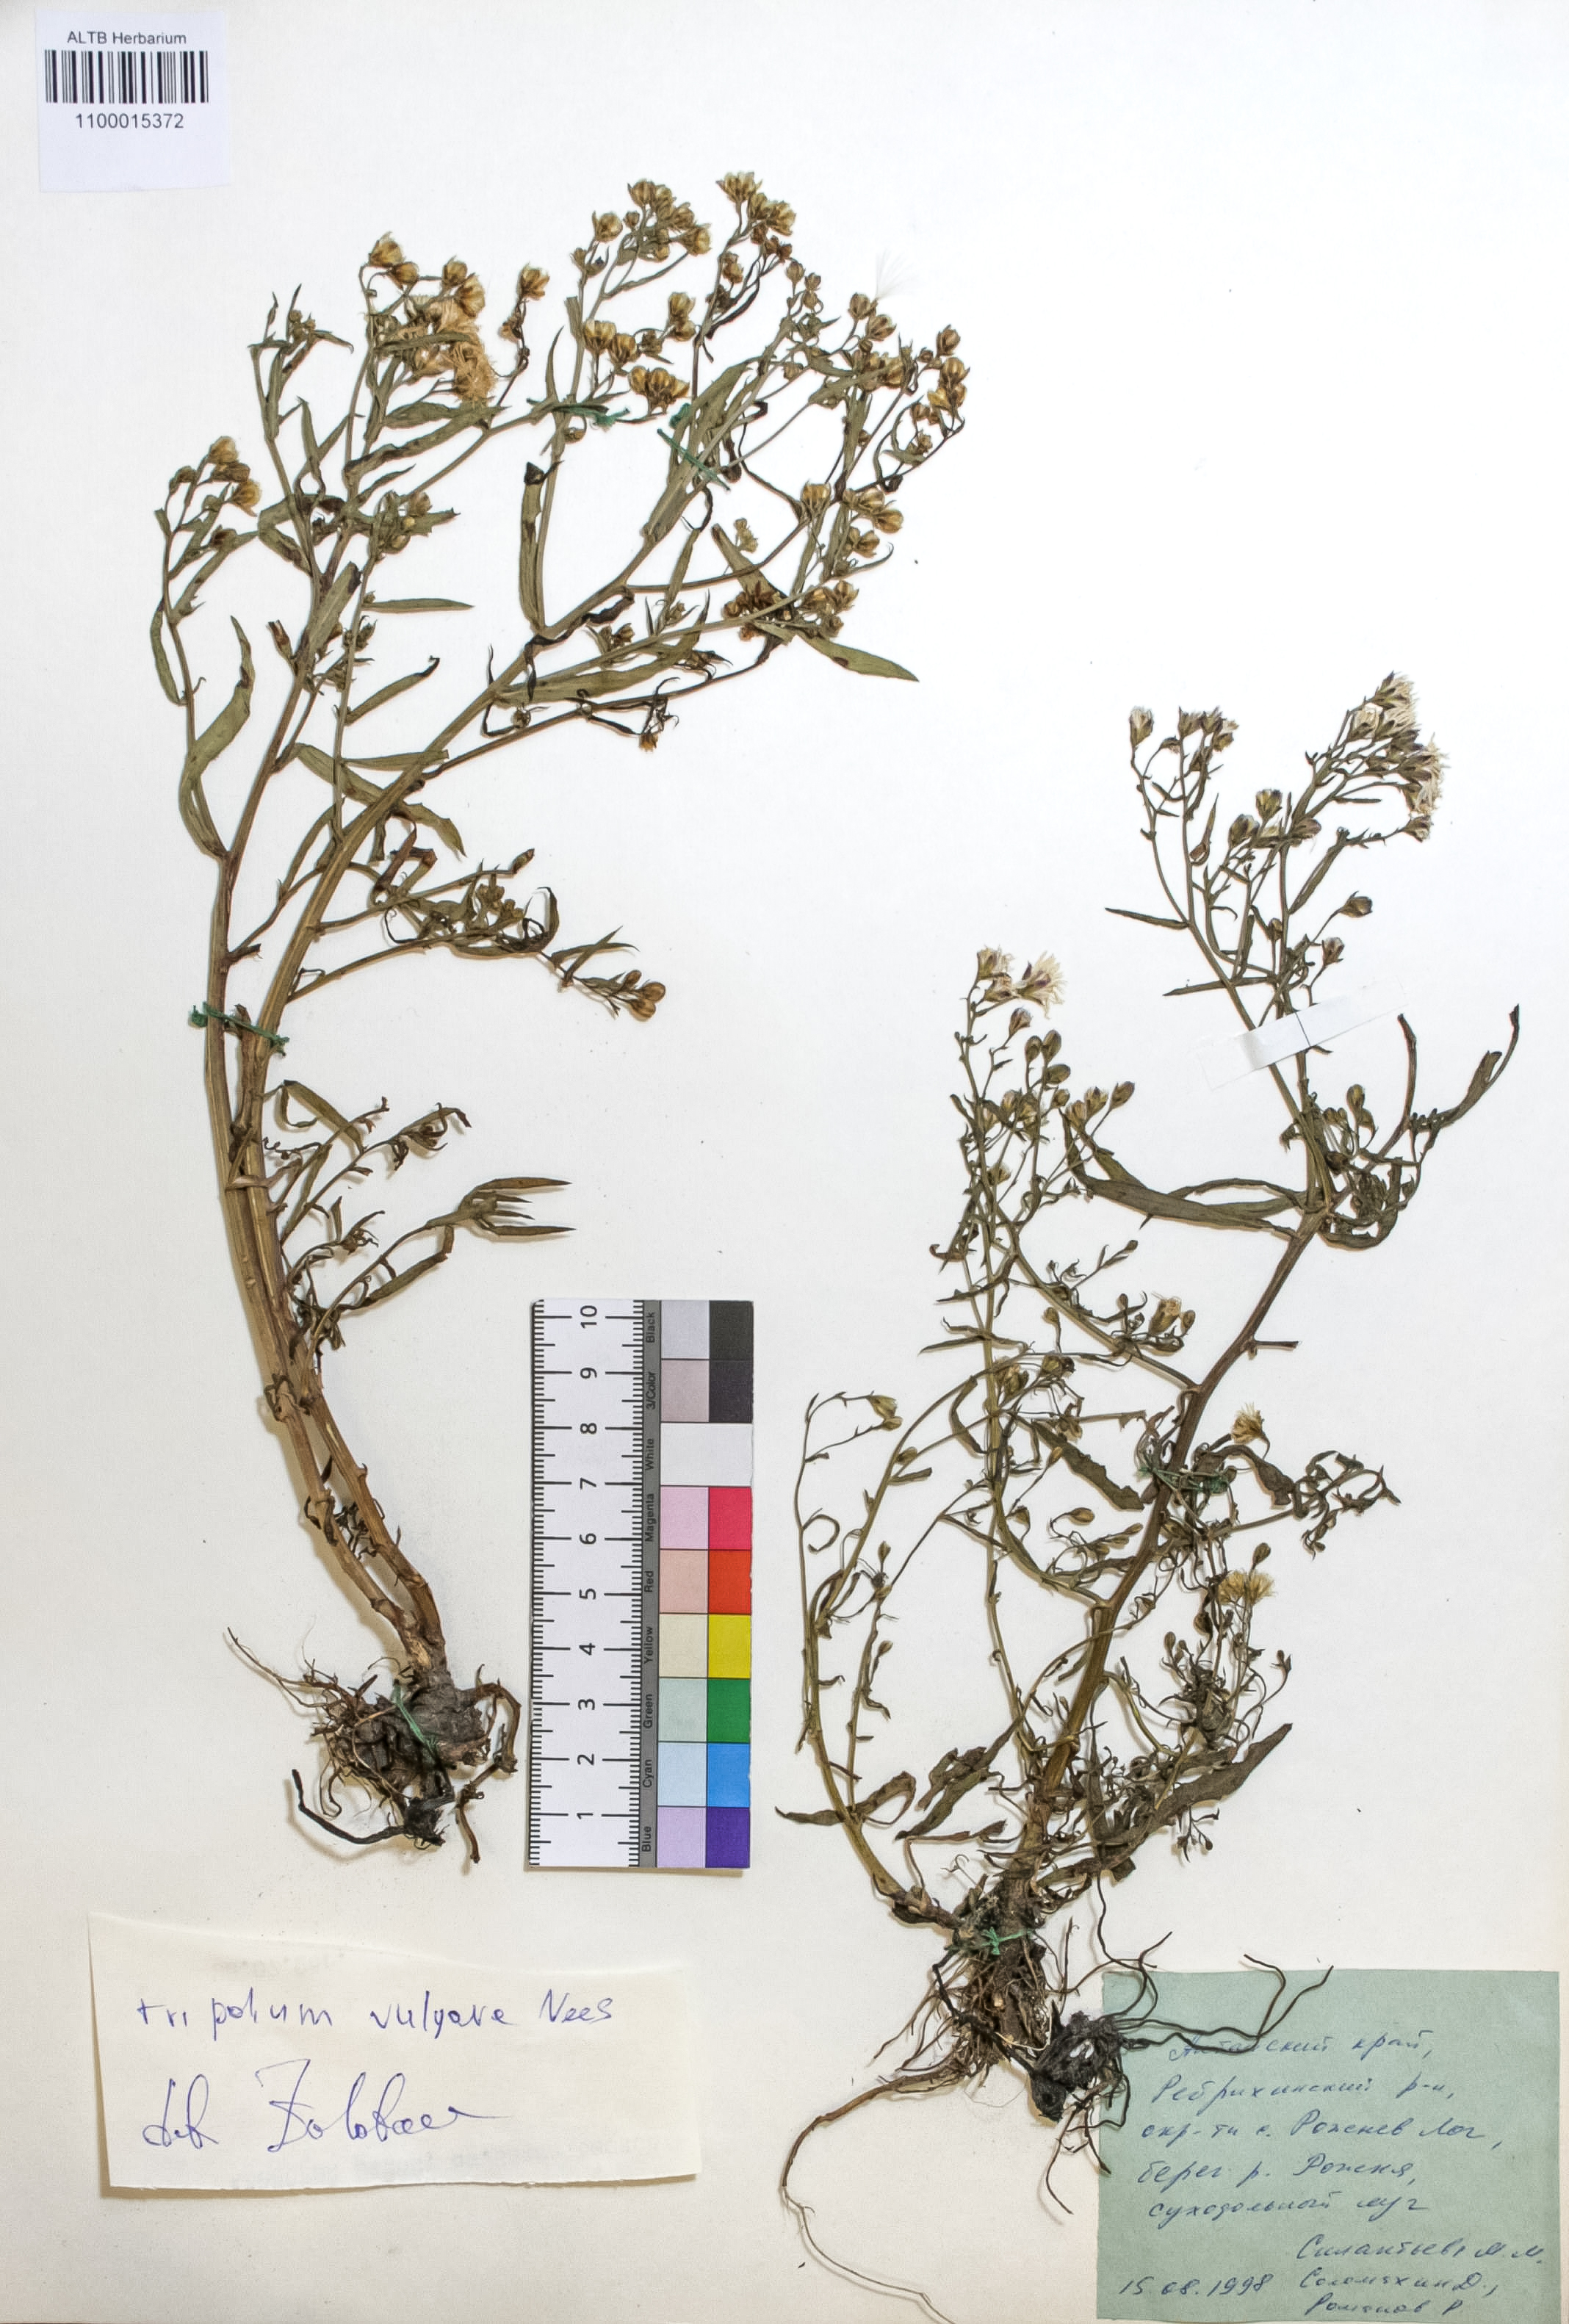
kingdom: Plantae
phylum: Tracheophyta
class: Magnoliopsida
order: Asterales
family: Asteraceae
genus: Tripolium
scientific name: Tripolium pannonicum
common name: Sea aster
